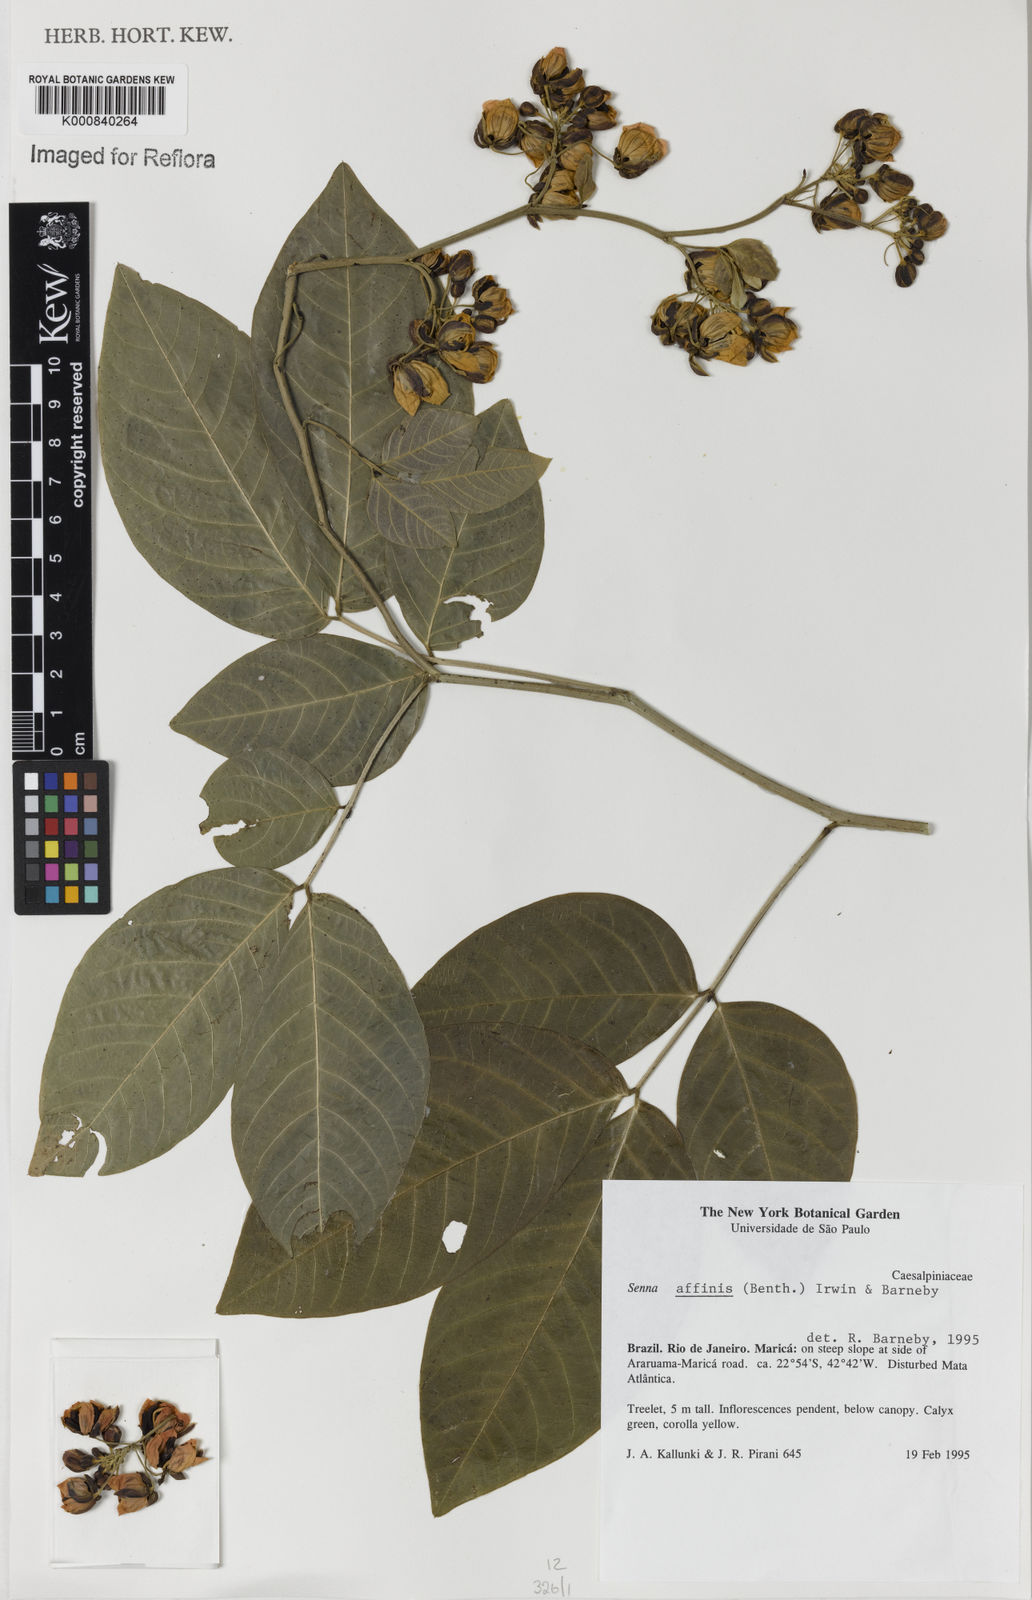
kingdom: Plantae
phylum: Tracheophyta
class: Magnoliopsida
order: Fabales
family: Fabaceae
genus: Senna
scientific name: Senna affinis
